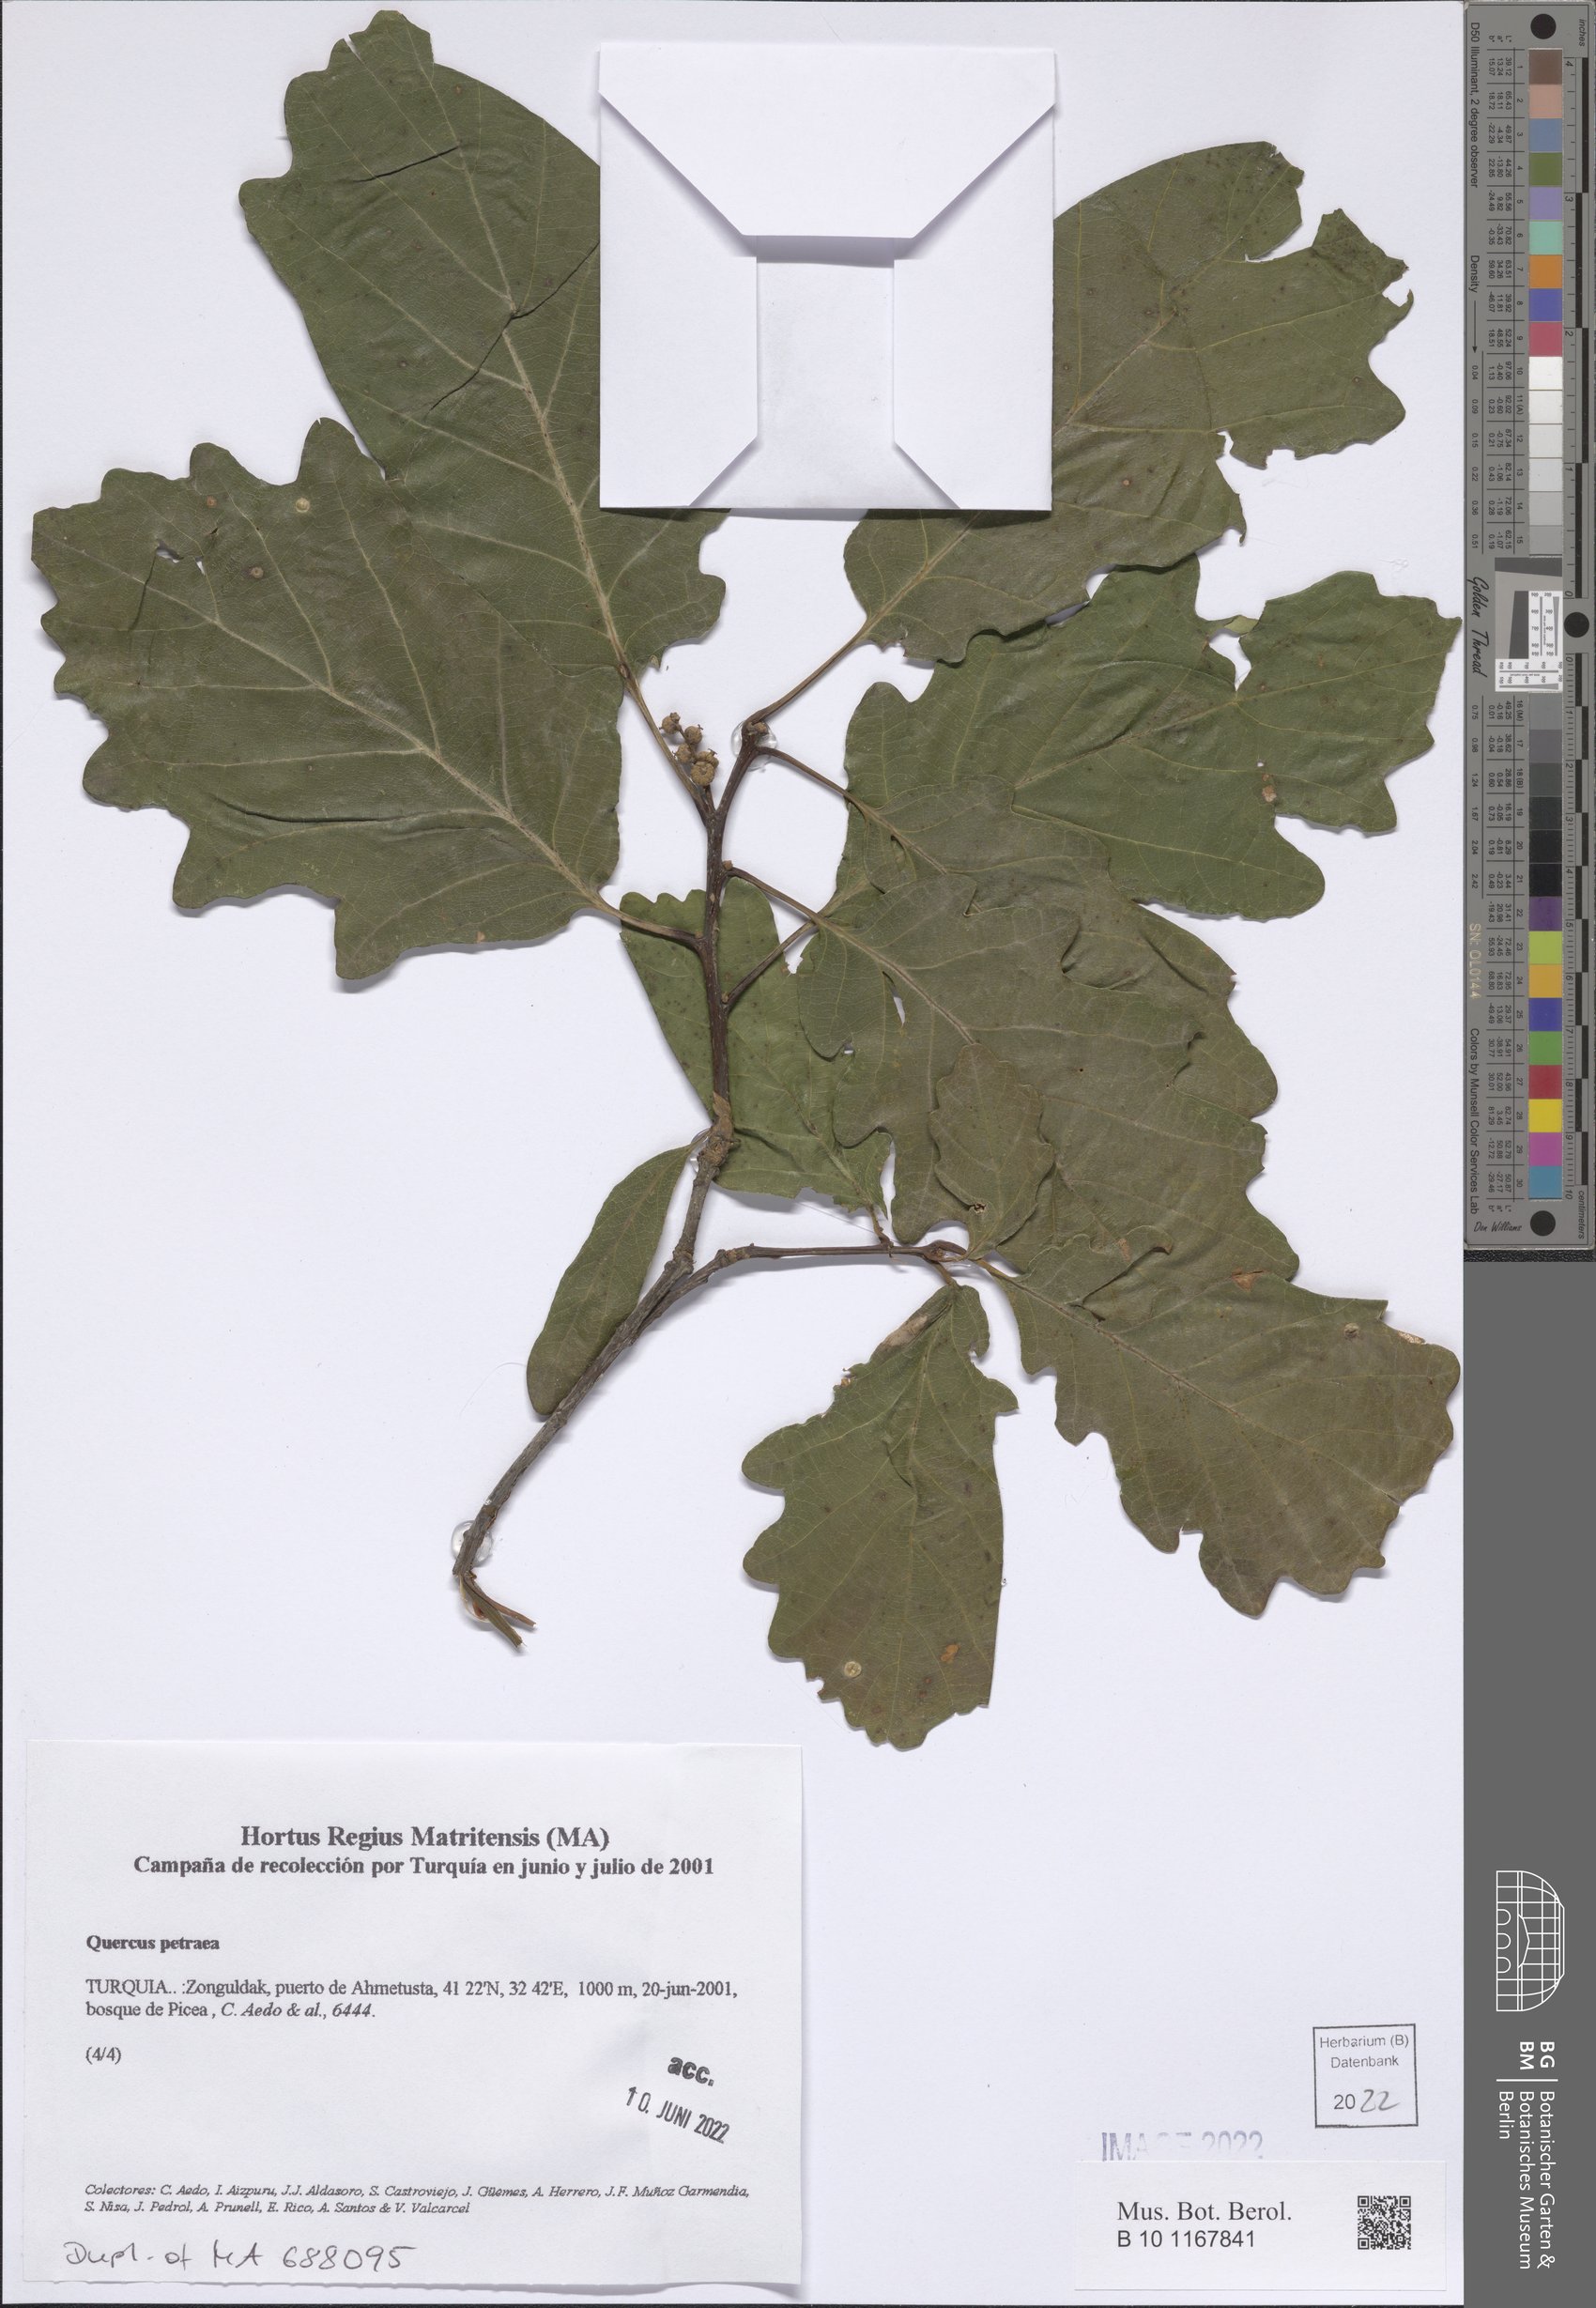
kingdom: Plantae
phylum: Tracheophyta
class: Magnoliopsida
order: Fagales
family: Fagaceae
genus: Quercus
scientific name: Quercus petraea
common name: Sessile oak
